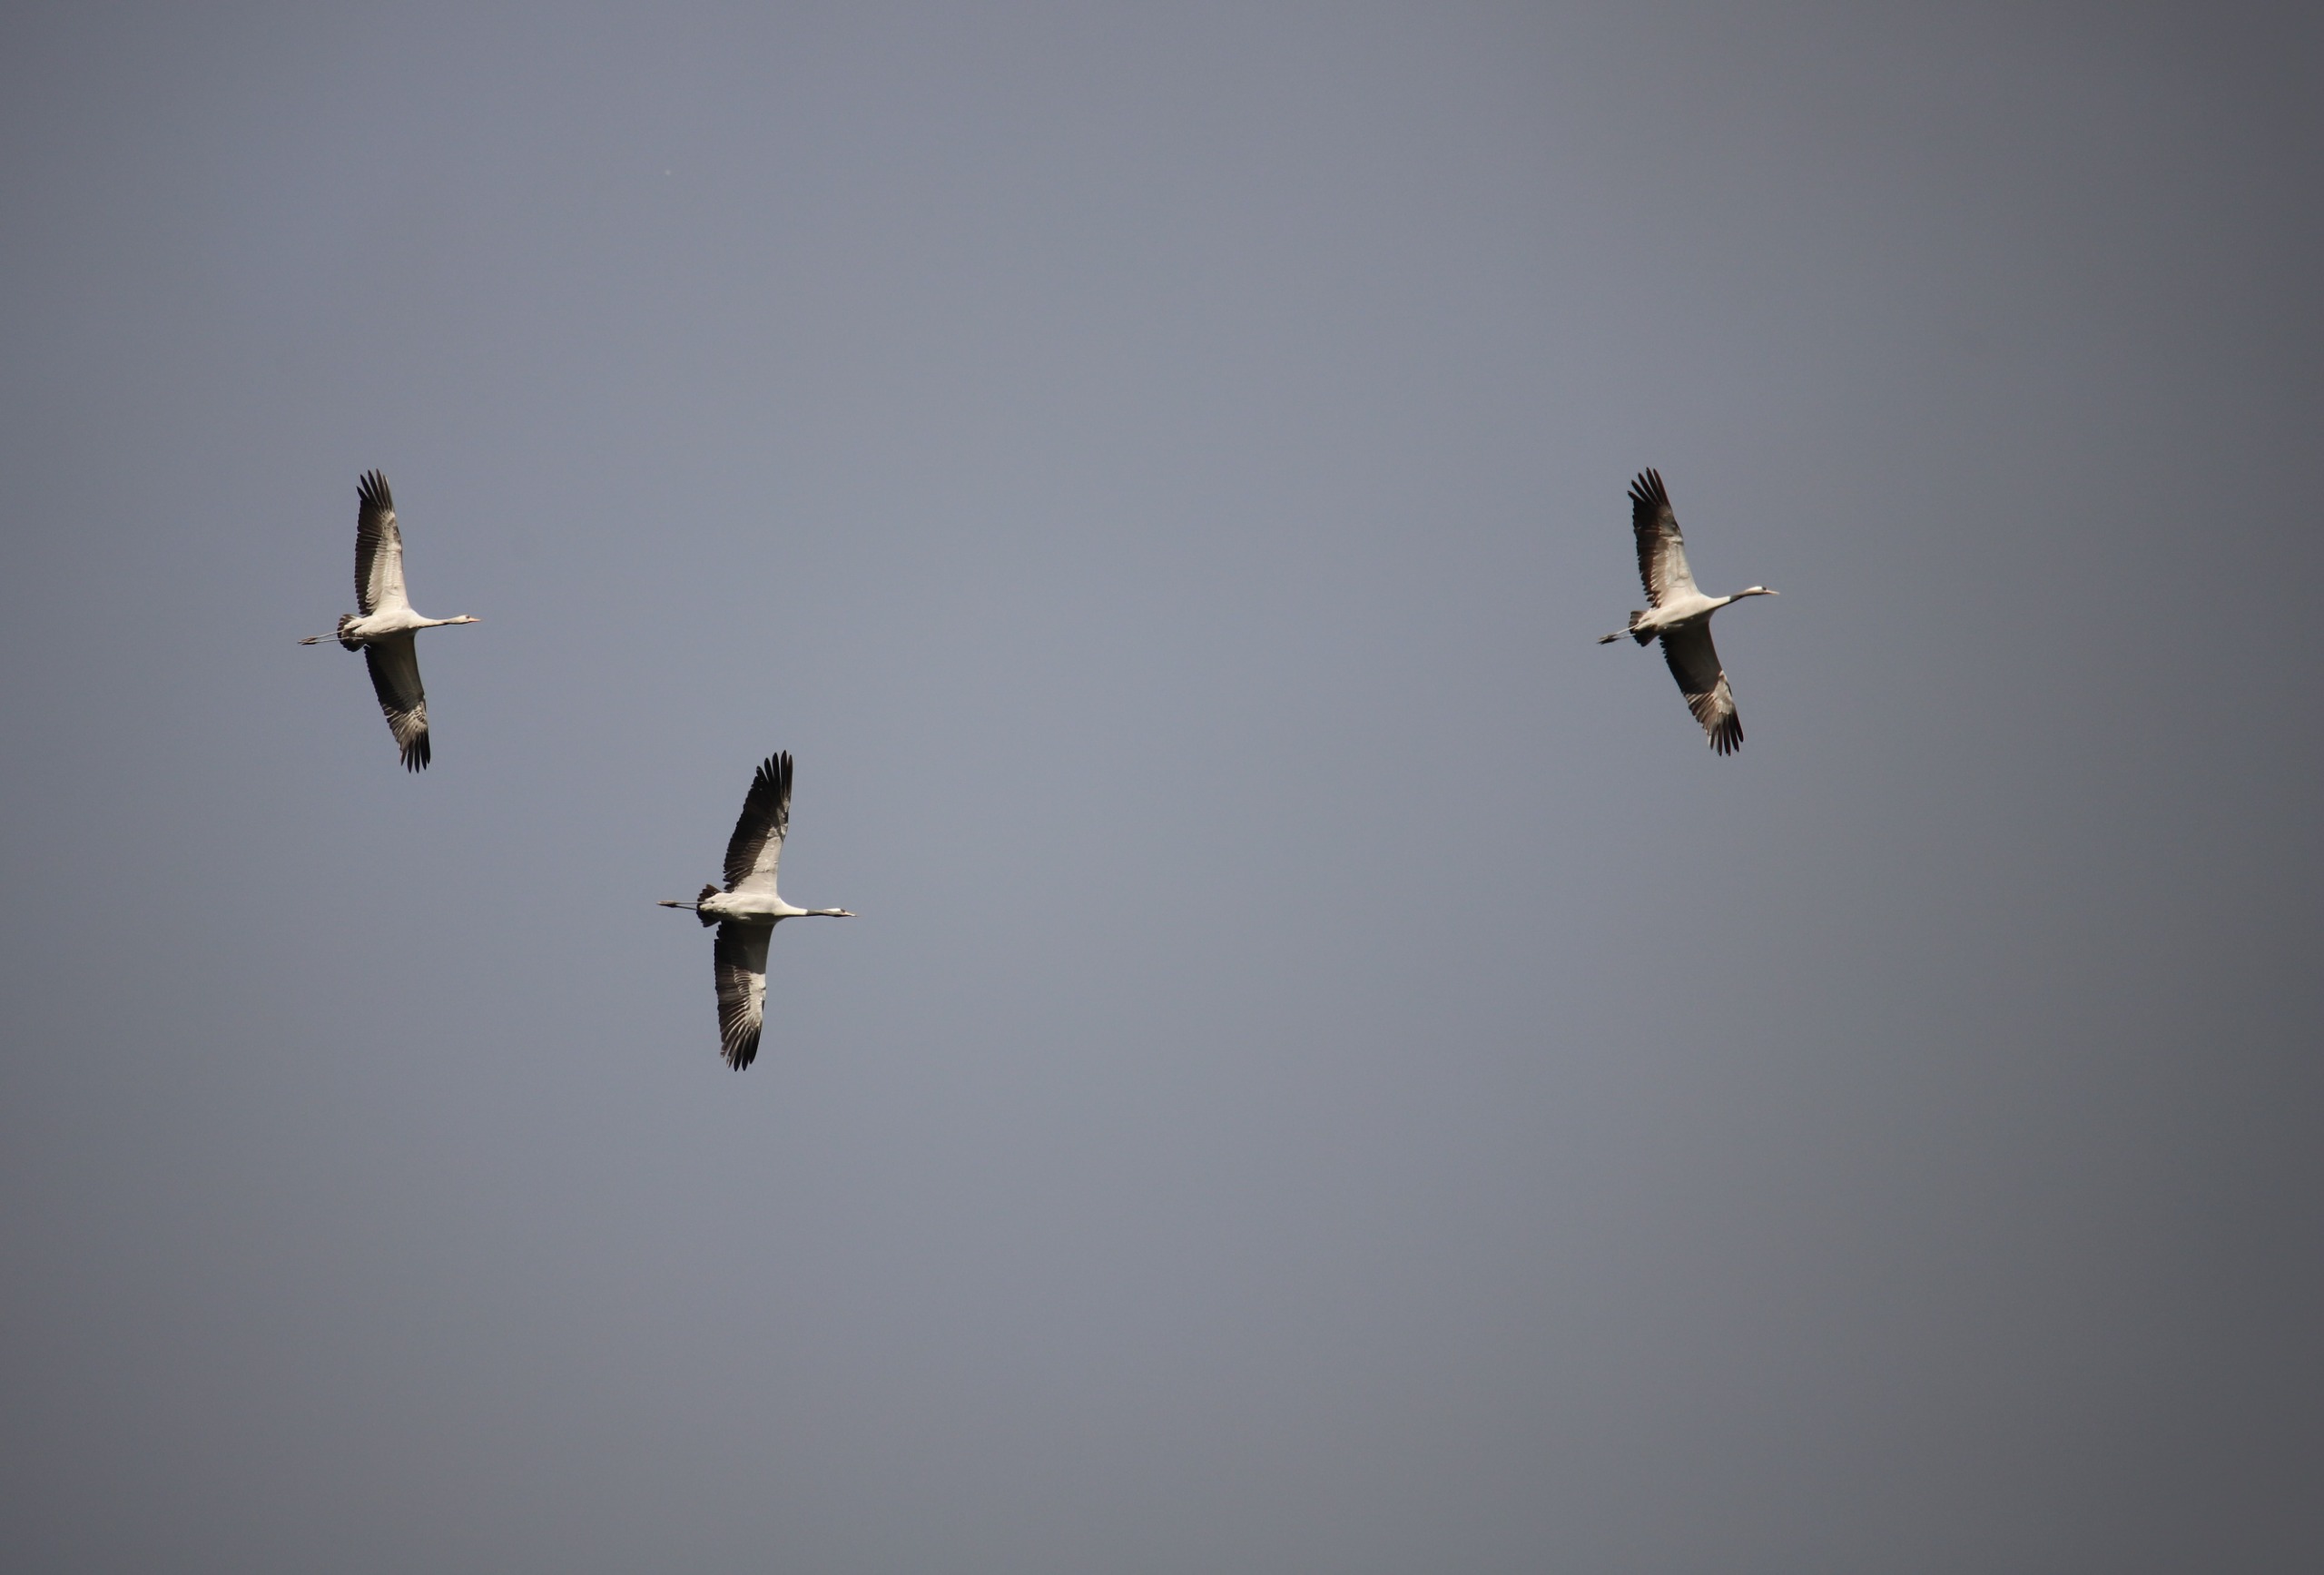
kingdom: Animalia
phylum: Chordata
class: Aves
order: Gruiformes
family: Gruidae
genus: Grus
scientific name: Grus grus
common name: Trane
